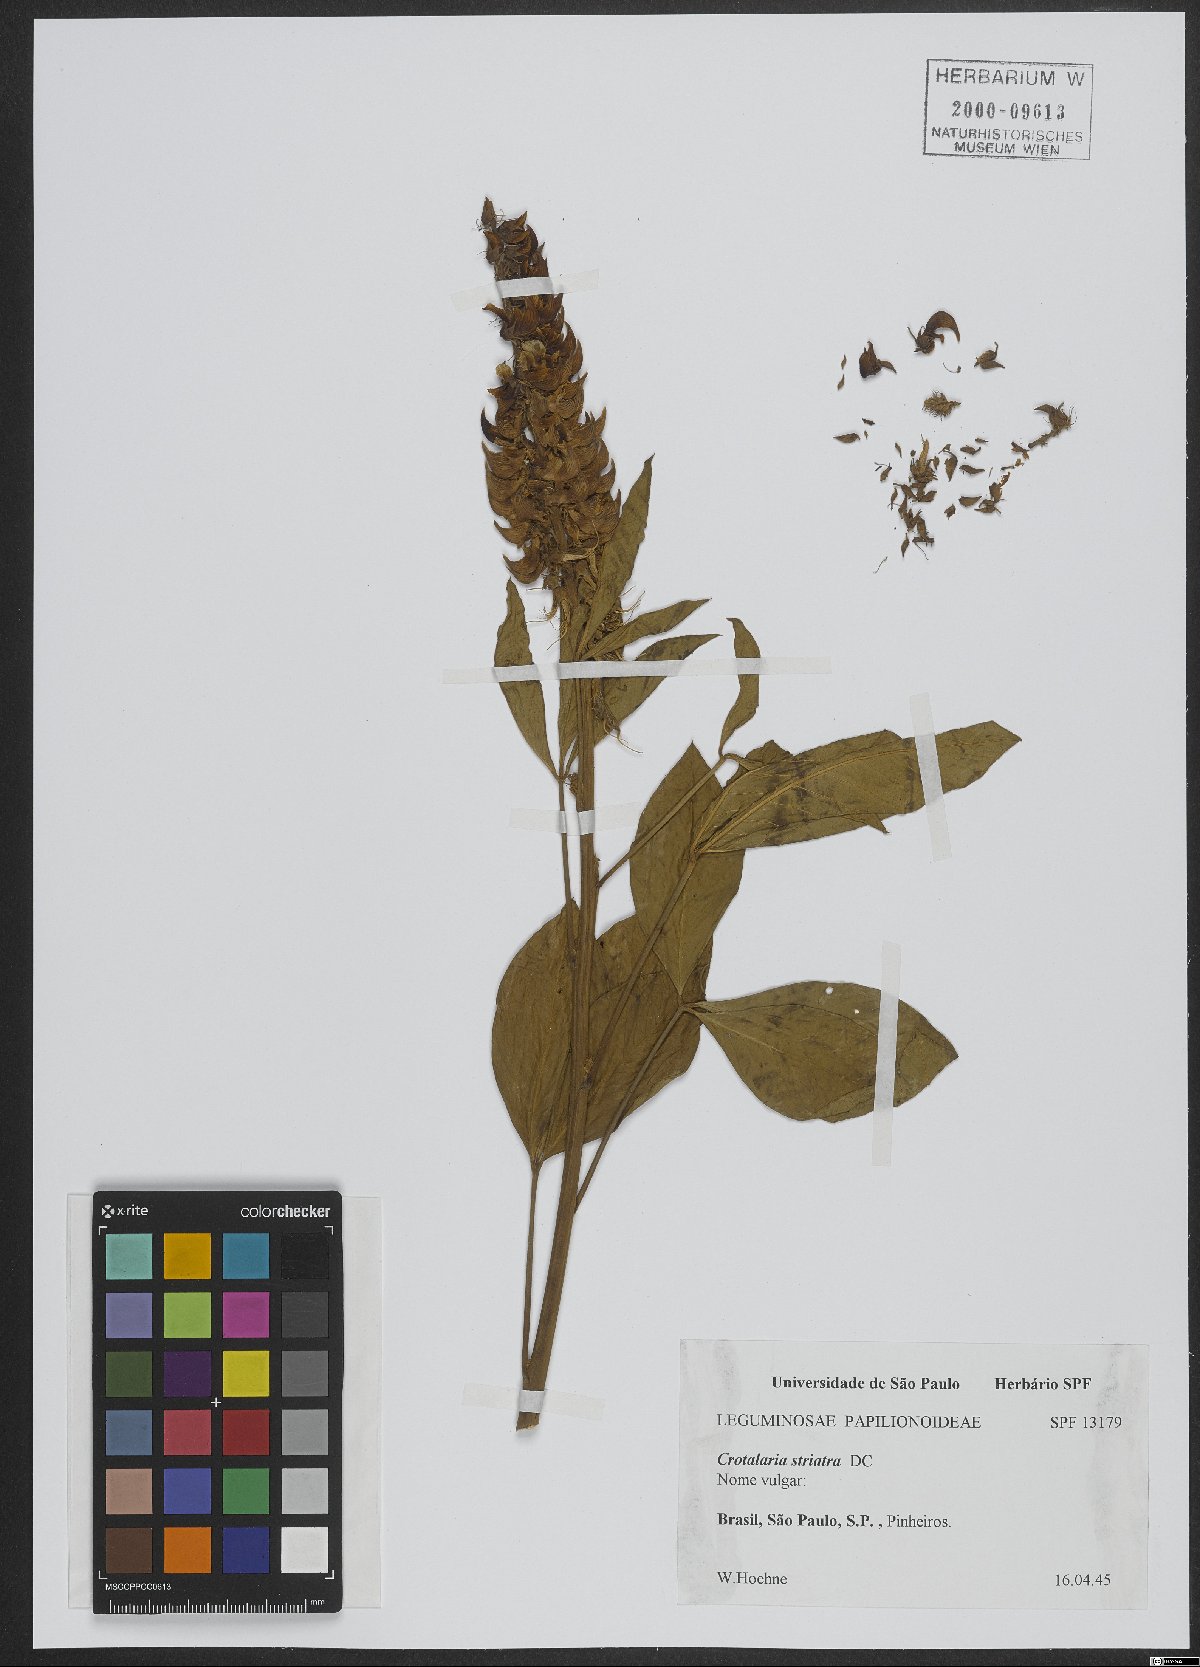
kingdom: Plantae
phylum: Tracheophyta
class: Magnoliopsida
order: Fabales
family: Fabaceae
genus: Crotalaria
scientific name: Crotalaria saltiana
